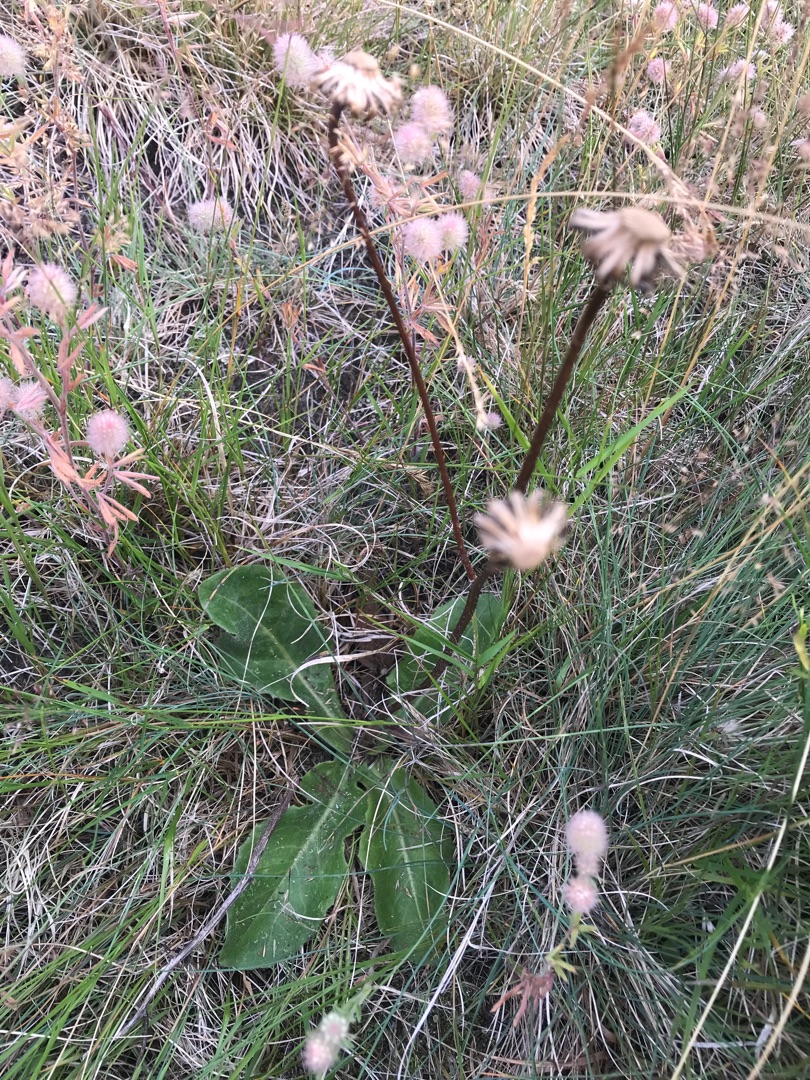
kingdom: Plantae
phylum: Tracheophyta
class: Magnoliopsida
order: Asterales
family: Asteraceae
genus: Trommsdorffia
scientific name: Trommsdorffia maculata
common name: Plettet kongepen
